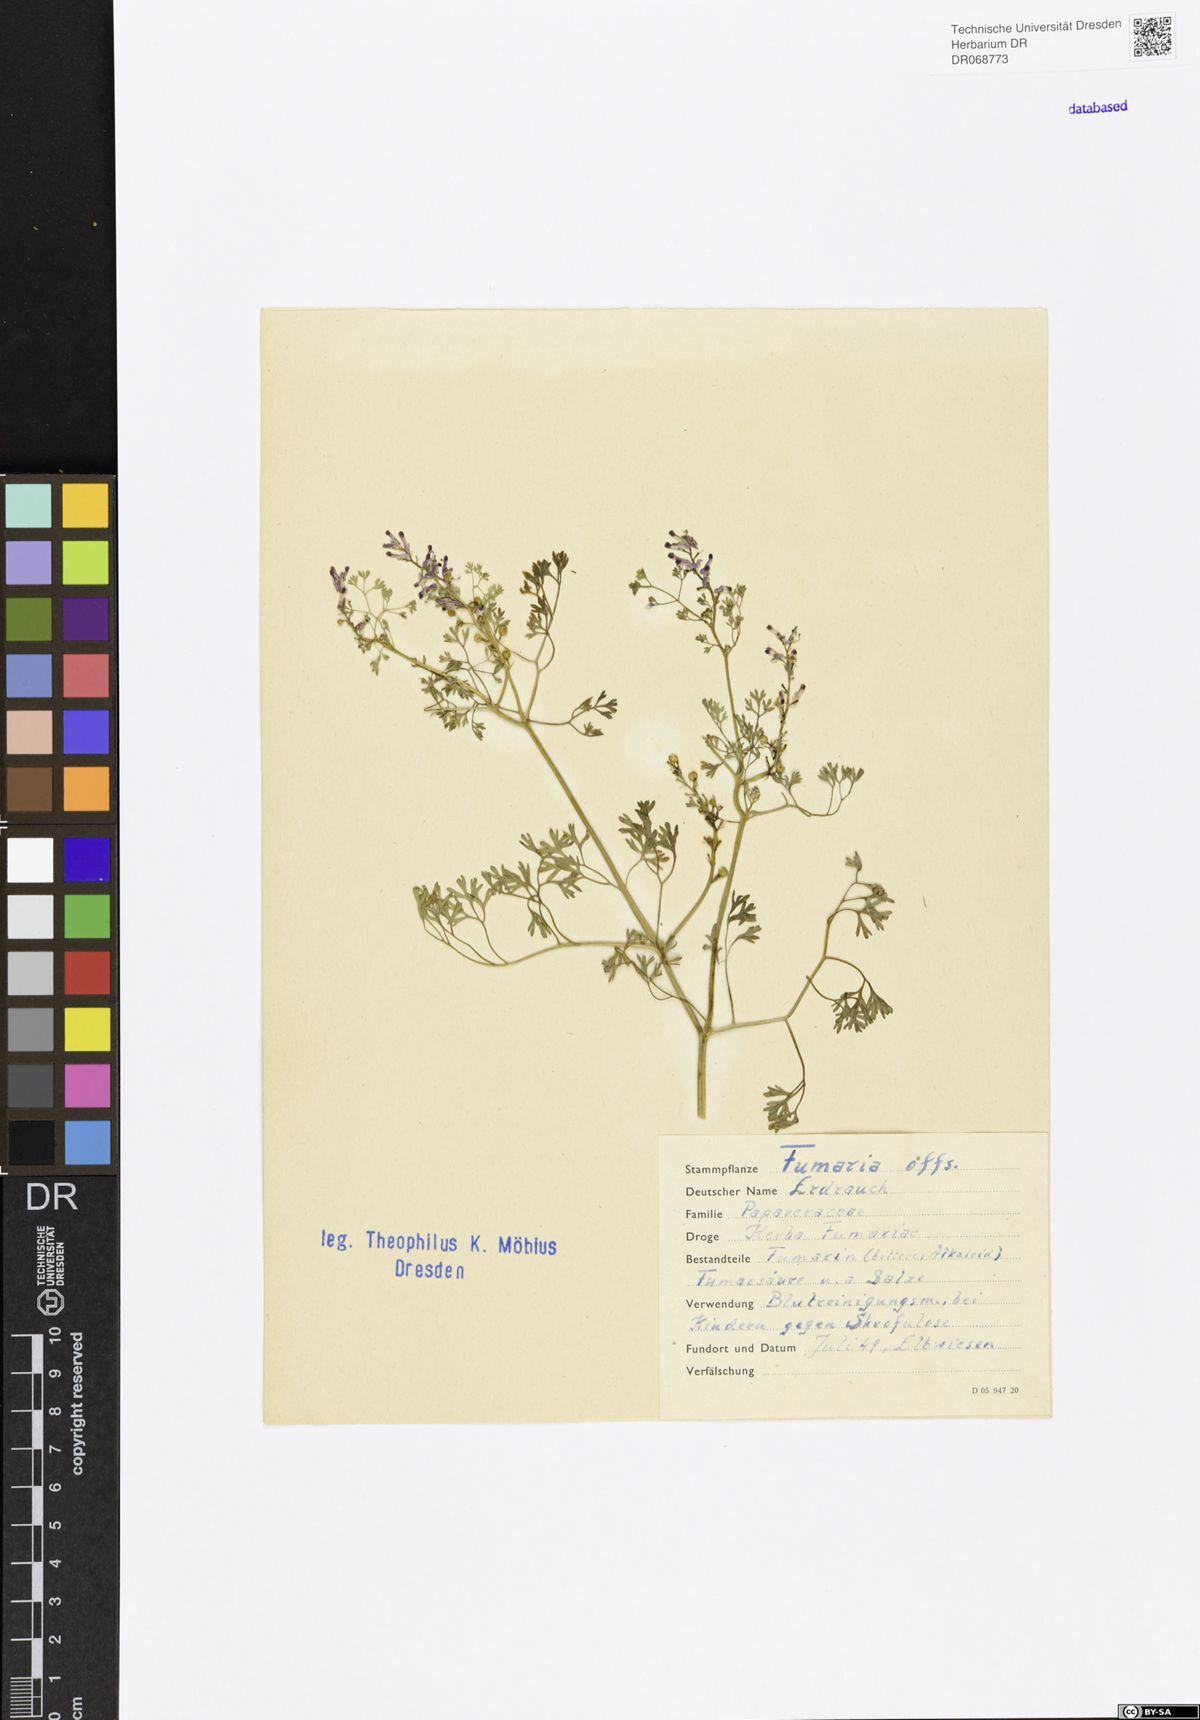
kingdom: Plantae
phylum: Tracheophyta
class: Magnoliopsida
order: Ranunculales
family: Papaveraceae
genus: Fumaria
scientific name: Fumaria officinalis
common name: Common fumitory
